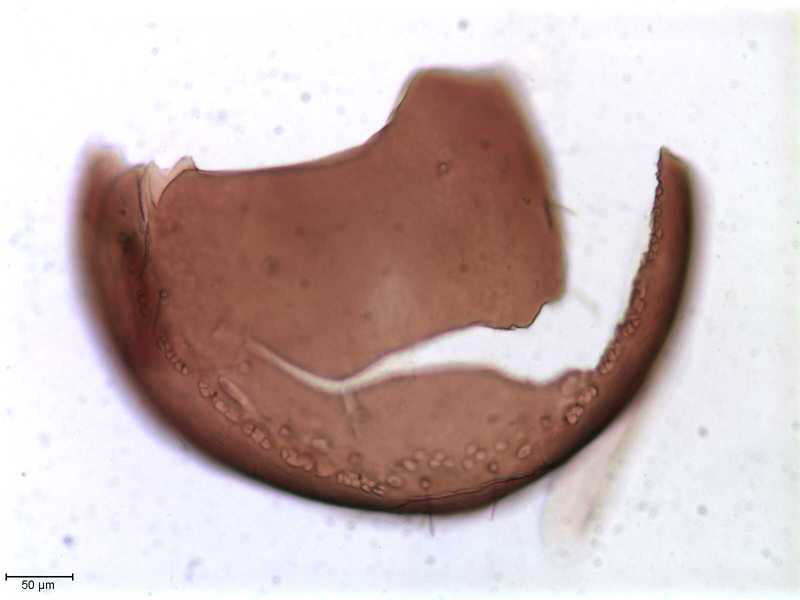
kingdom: Animalia
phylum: Arthropoda
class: Arachnida
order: Sarcoptiformes
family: Oribatulidae
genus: Oribatula
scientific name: Oribatula
